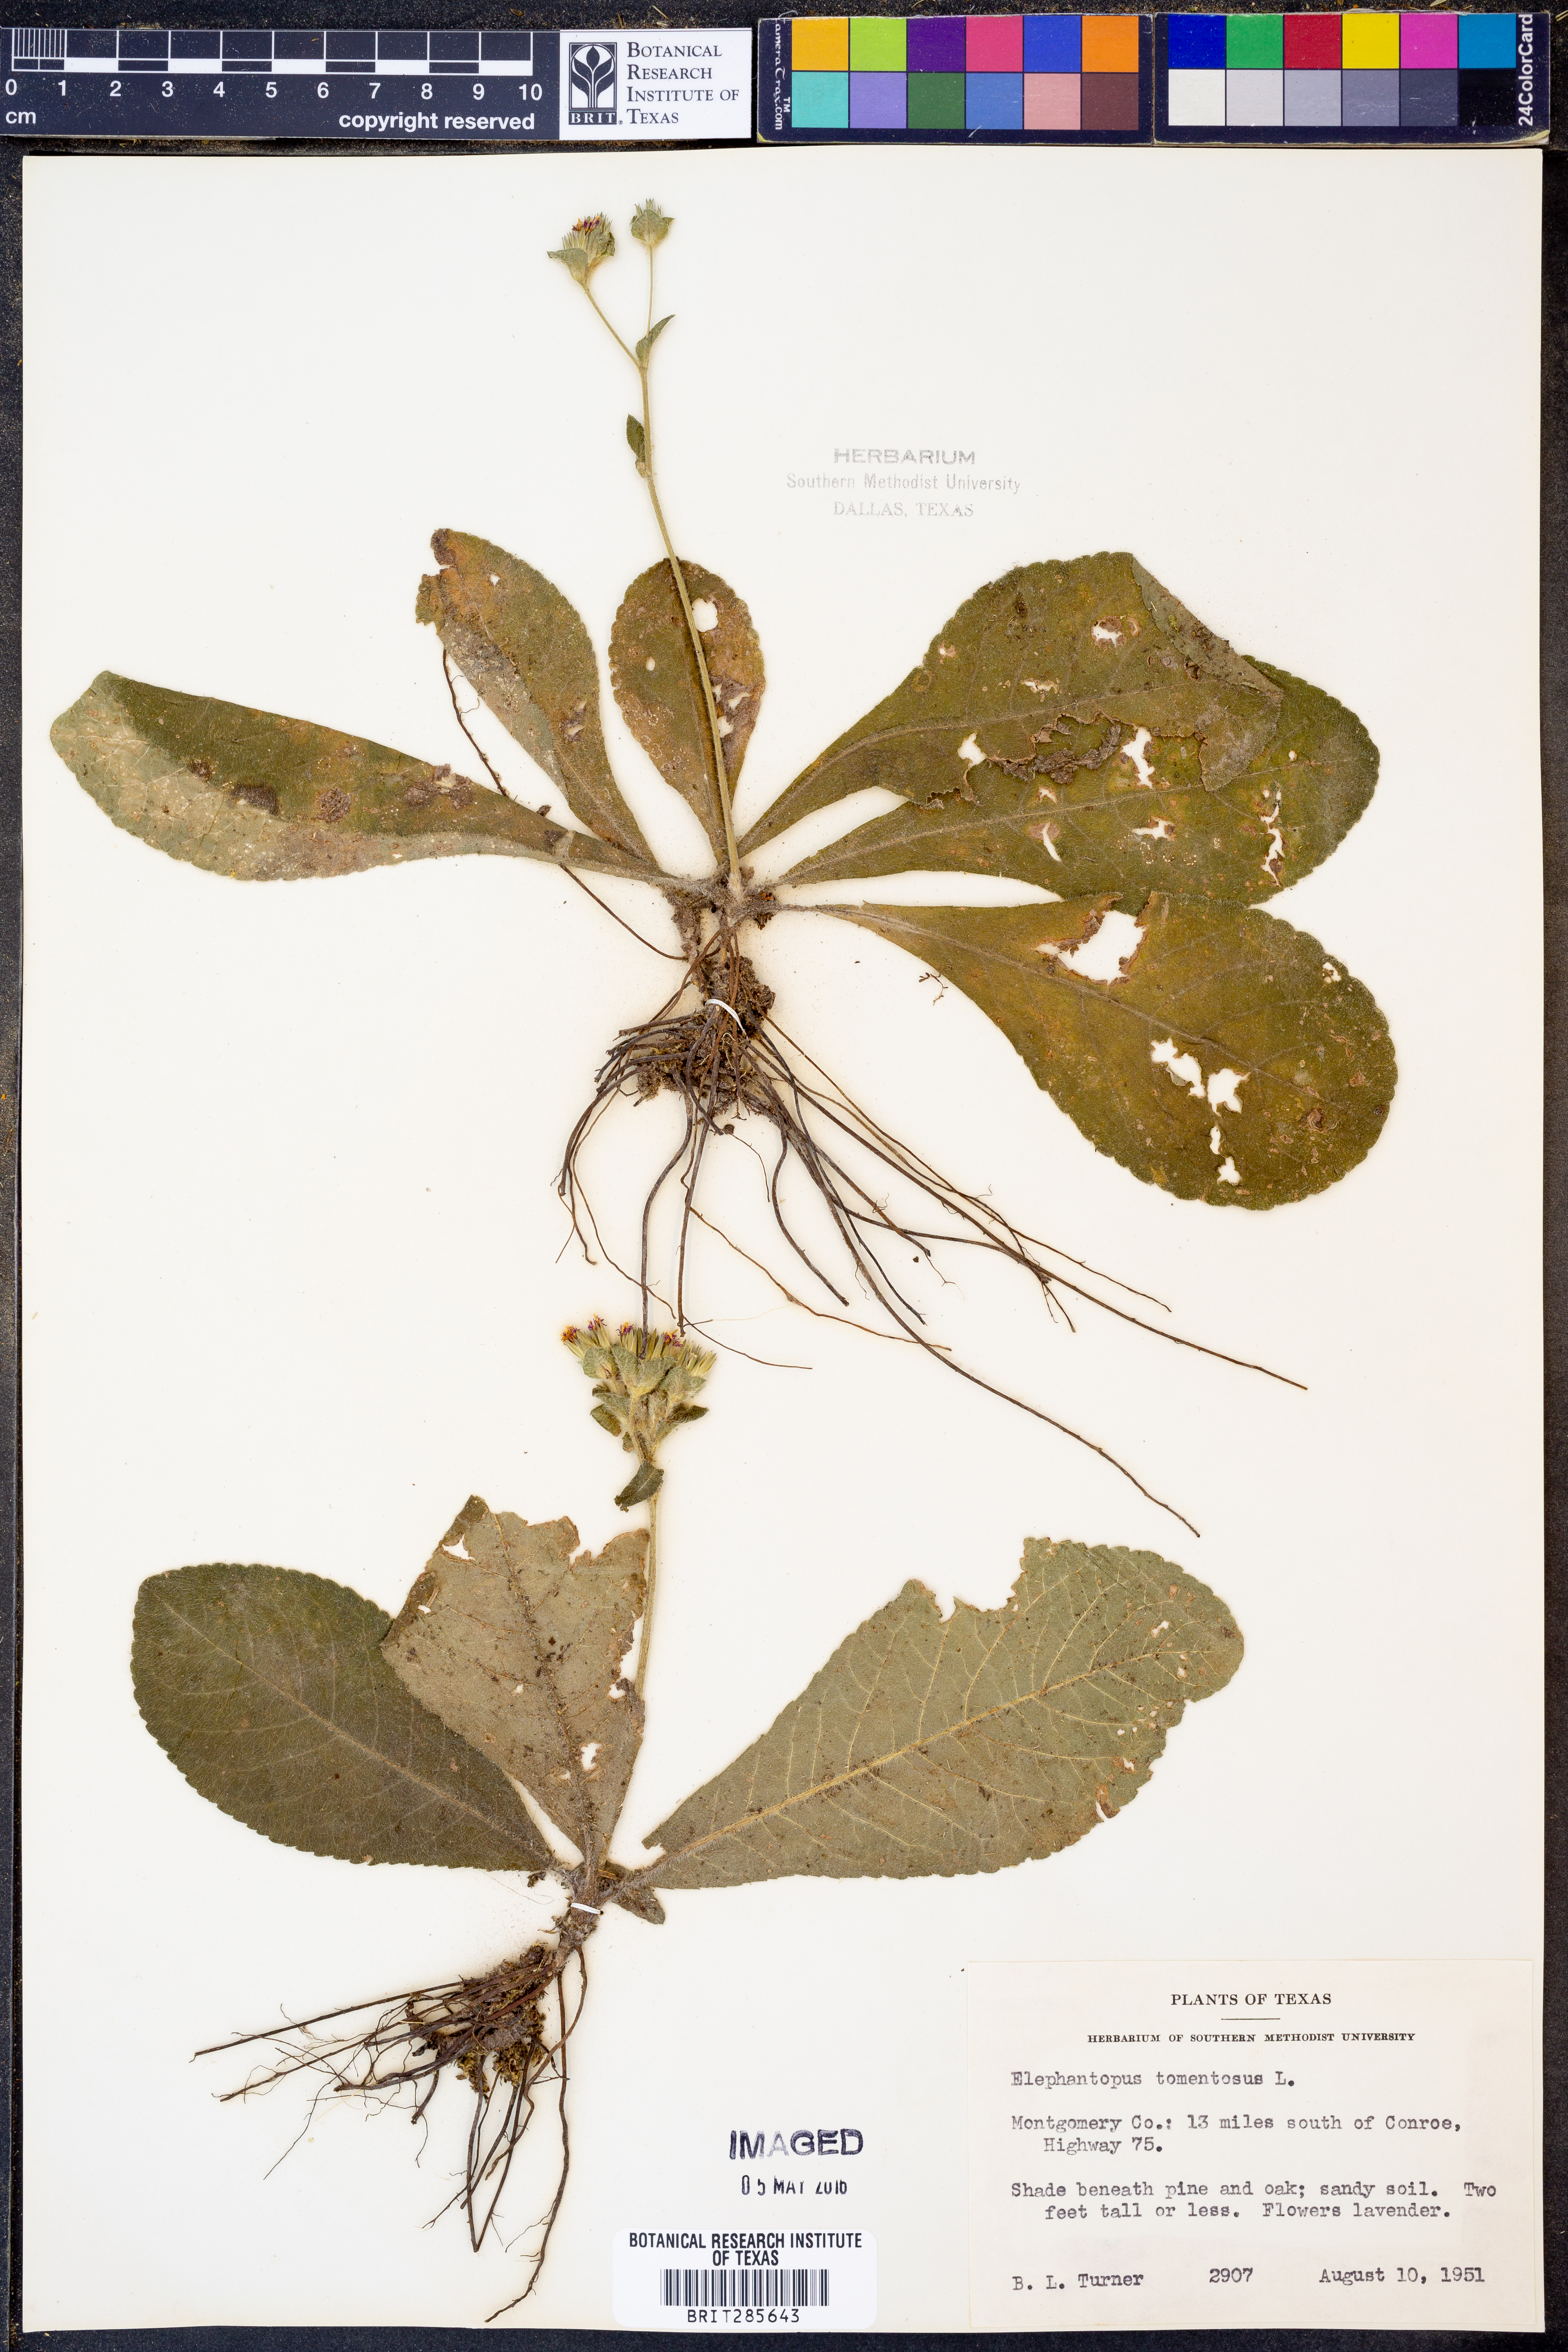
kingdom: Plantae
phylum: Tracheophyta
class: Magnoliopsida
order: Asterales
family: Asteraceae
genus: Elephantopus
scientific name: Elephantopus tomentosus
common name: Tobacco-weed
